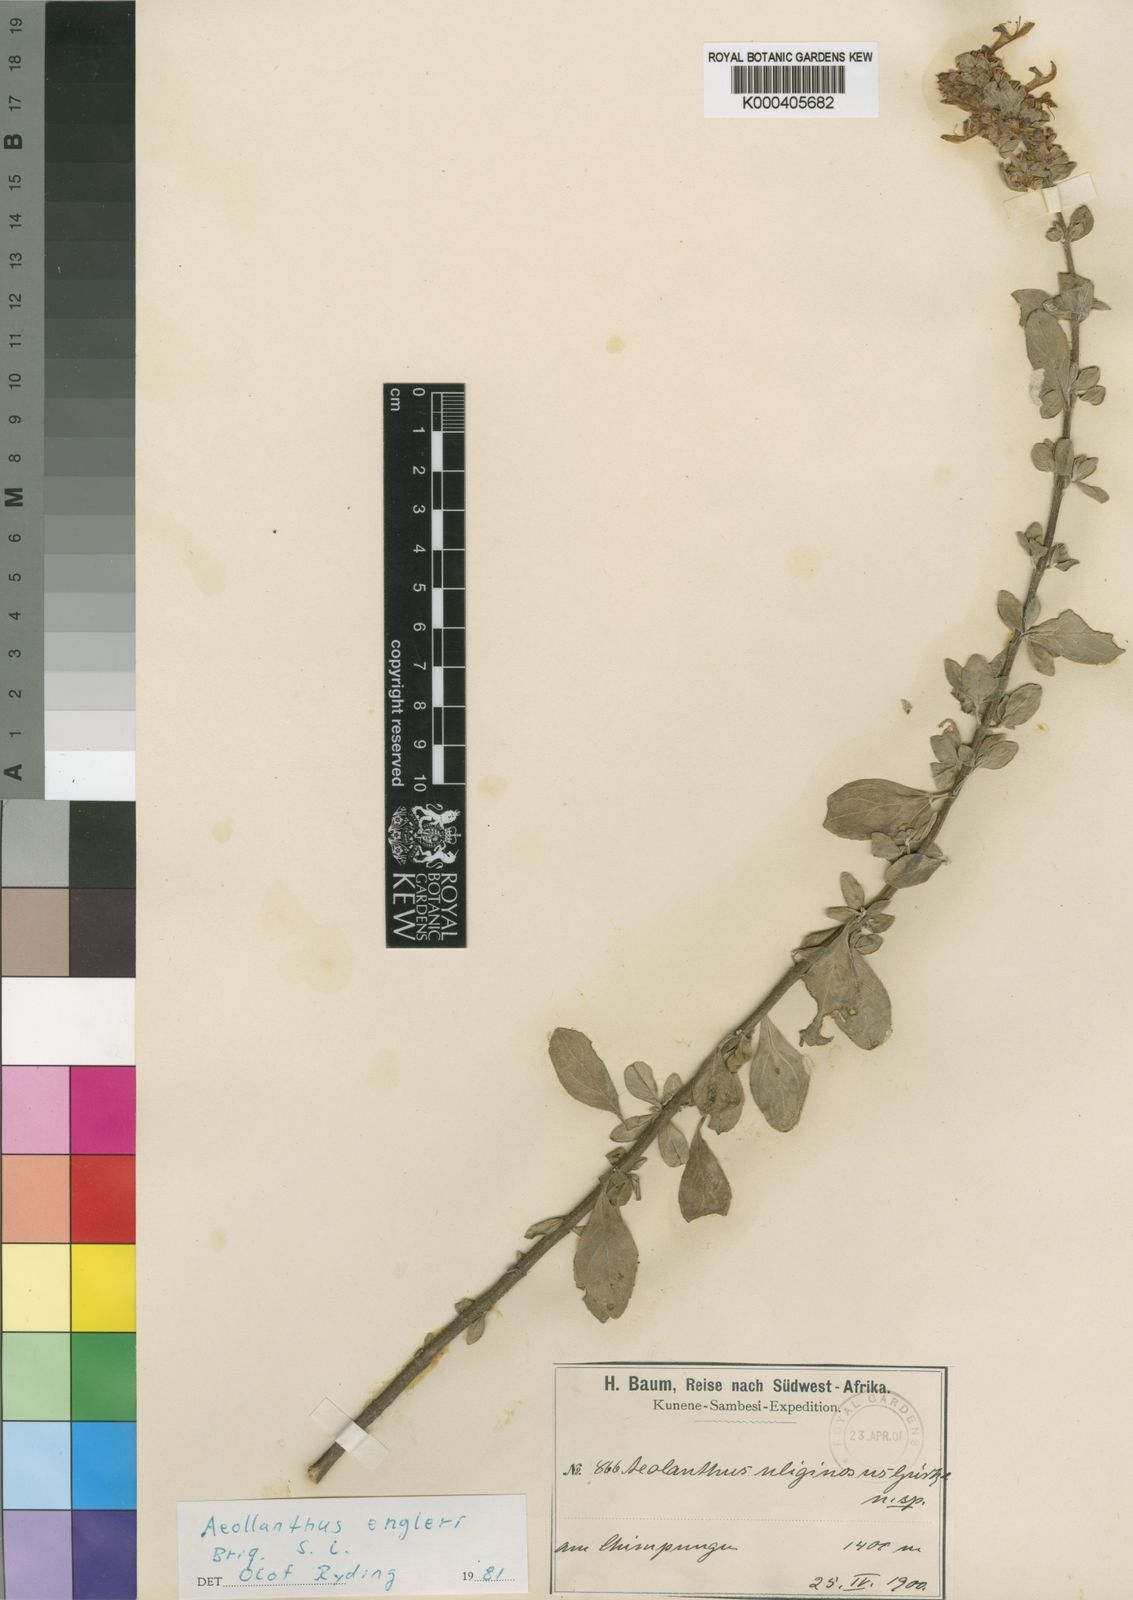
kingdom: Plantae
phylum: Tracheophyta
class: Magnoliopsida
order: Lamiales
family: Lamiaceae
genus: Aeollanthus
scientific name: Aeollanthus engleri
